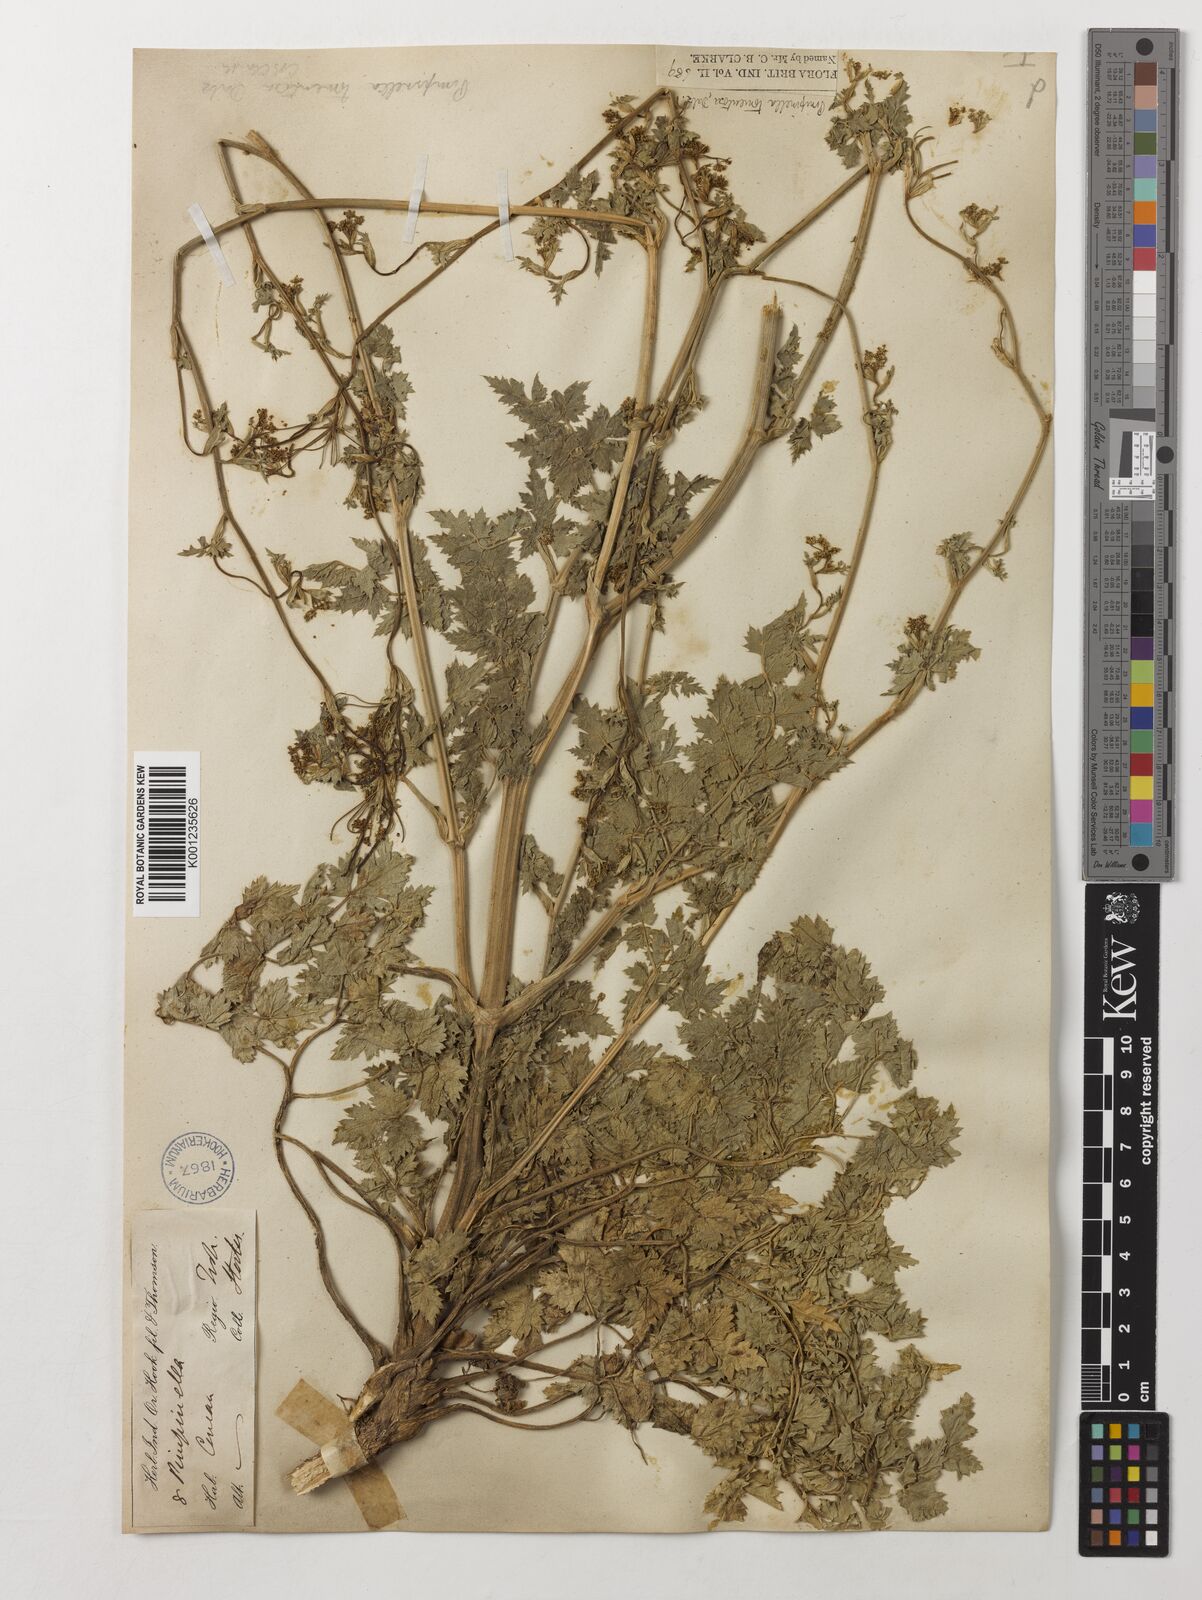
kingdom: Plantae
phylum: Tracheophyta
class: Magnoliopsida
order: Apiales
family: Apiaceae
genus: Pimpinella
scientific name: Pimpinella tomentosa
